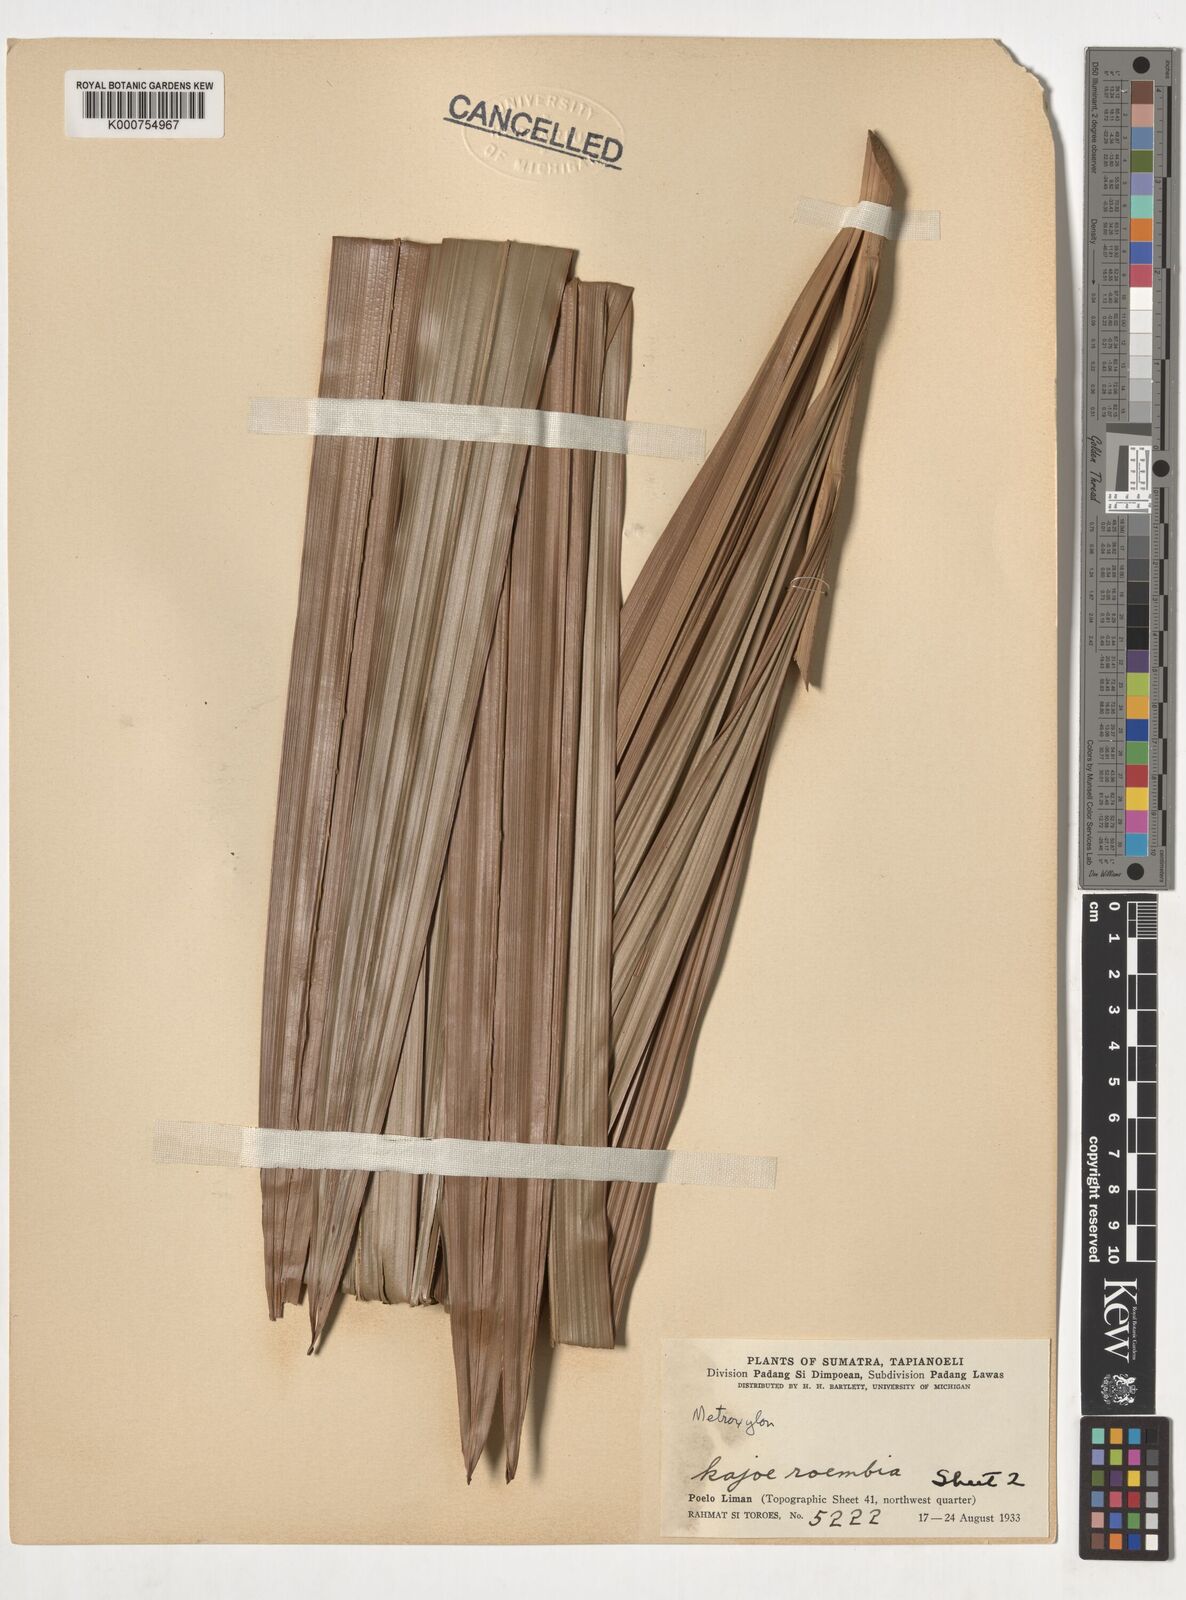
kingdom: Plantae
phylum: Tracheophyta
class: Liliopsida
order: Arecales
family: Arecaceae
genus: Metroxylon
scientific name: Metroxylon
